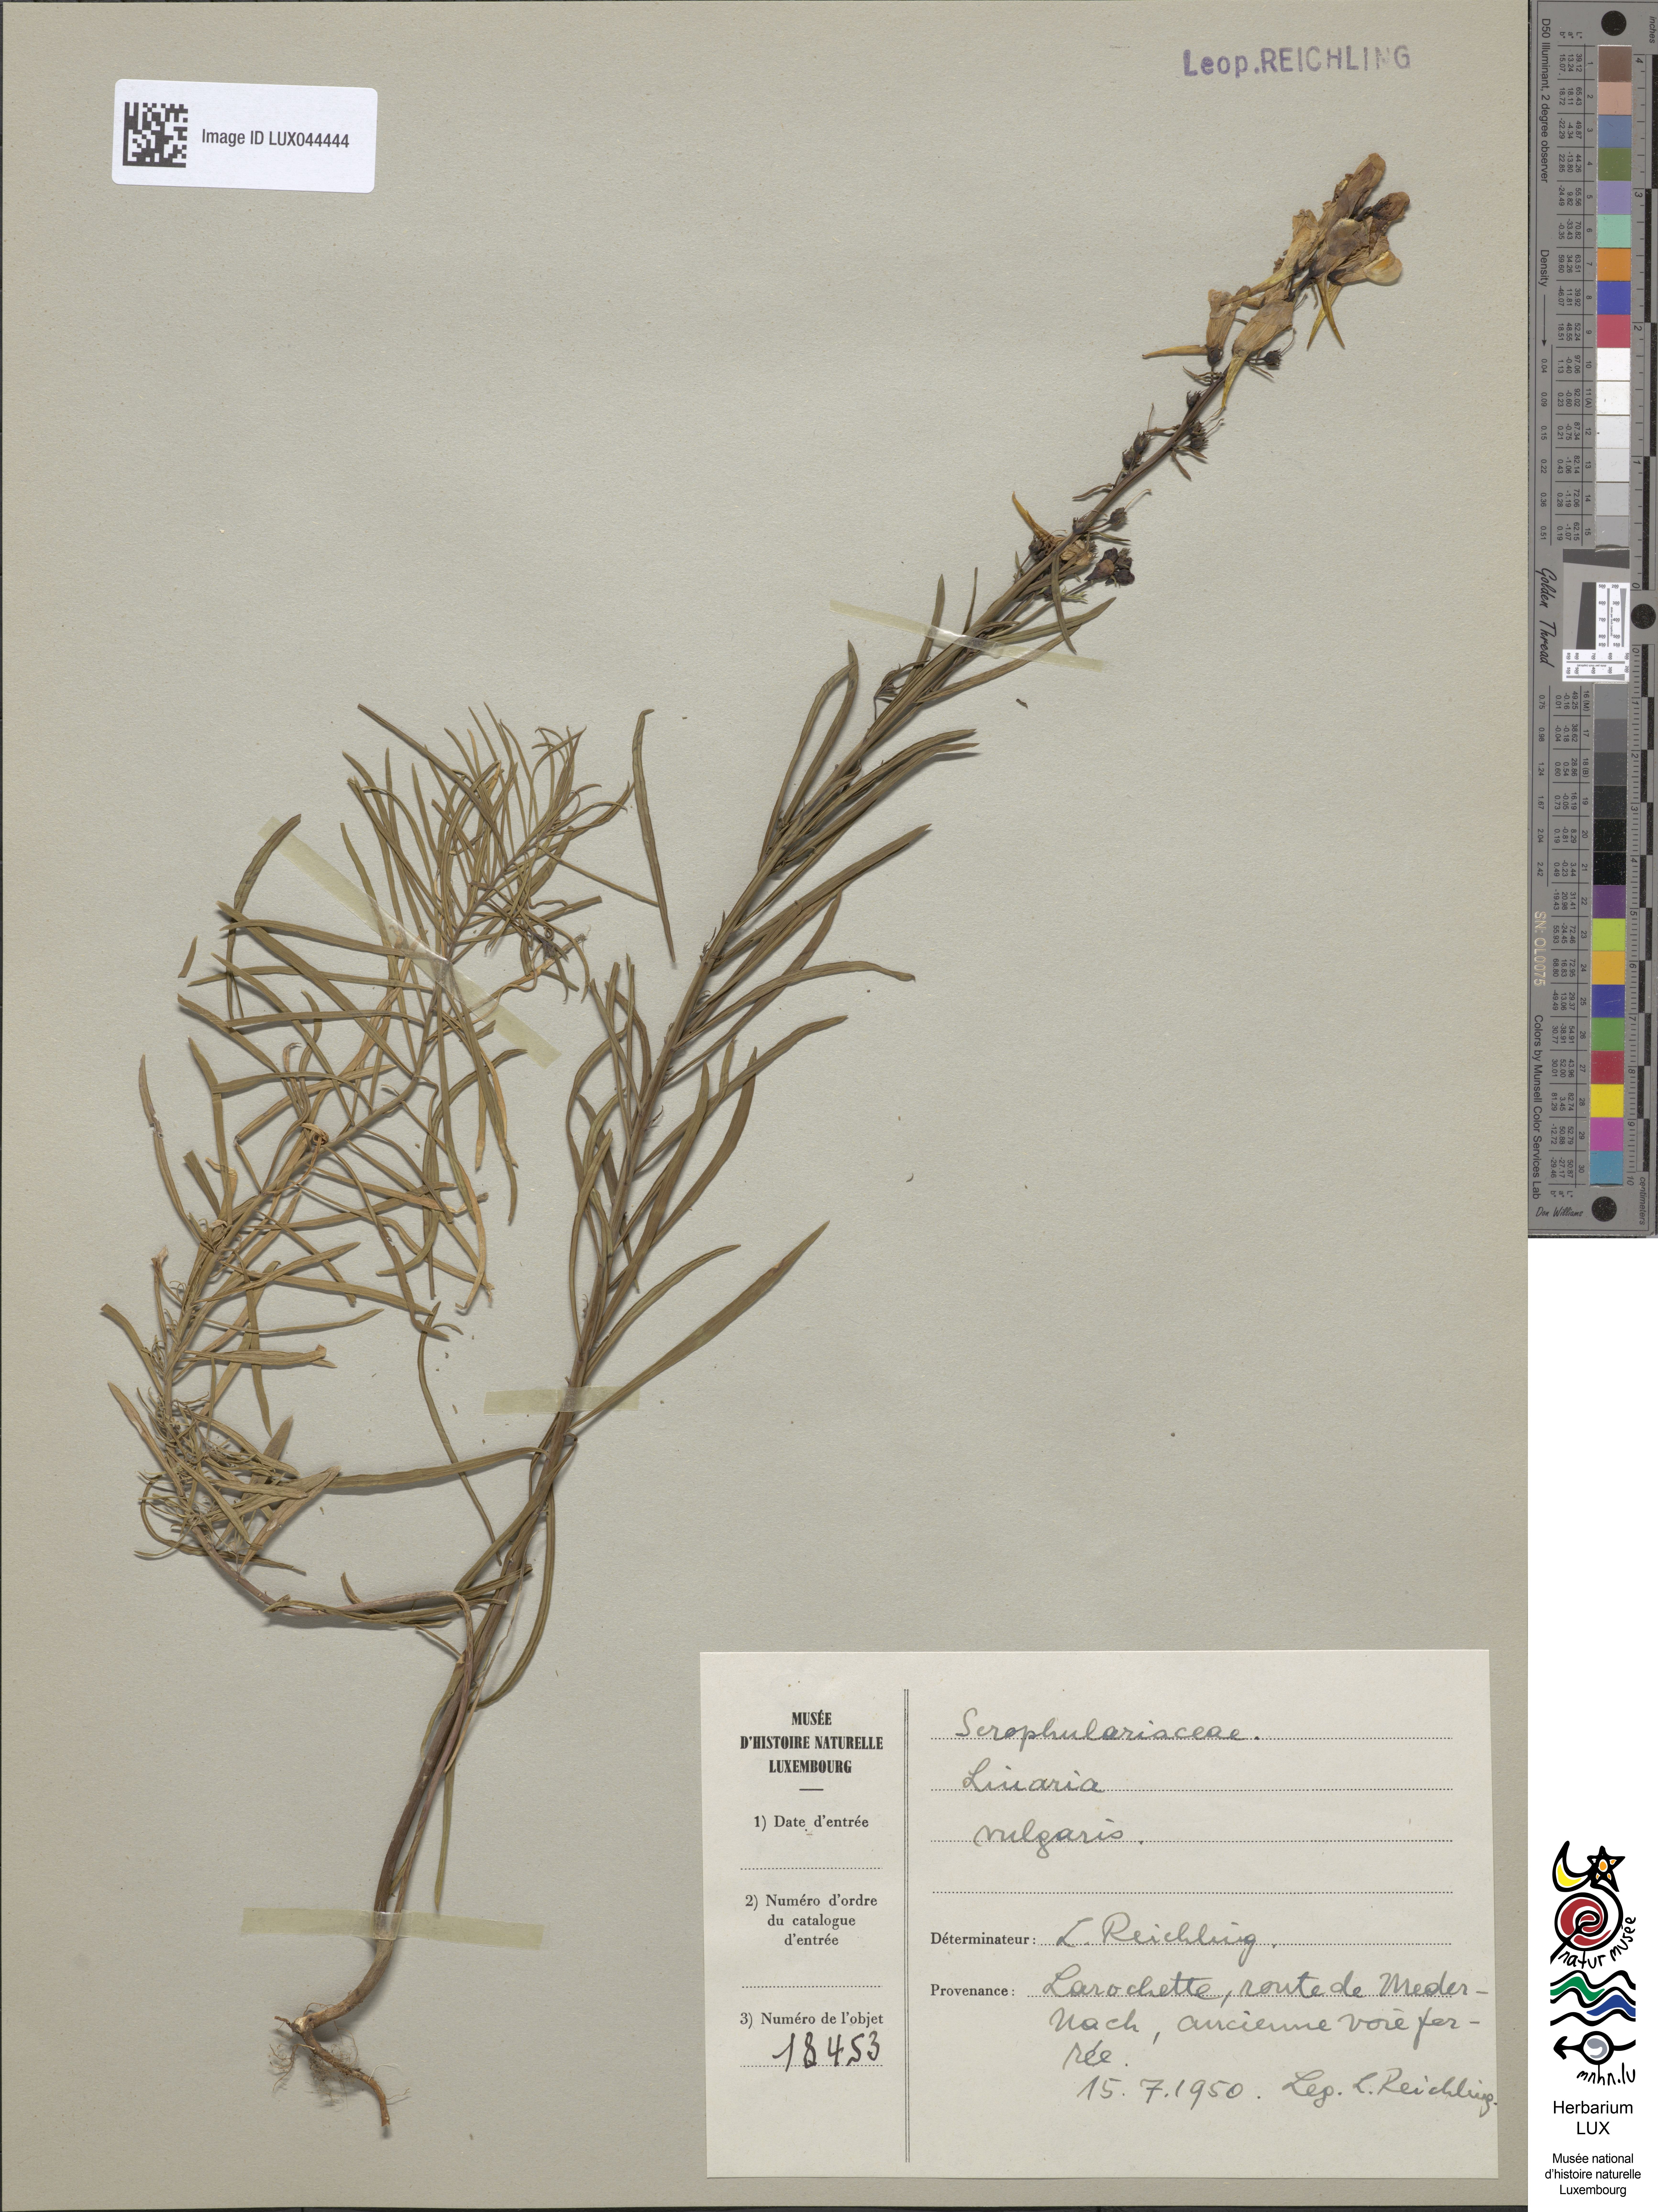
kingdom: Plantae
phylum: Tracheophyta
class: Magnoliopsida
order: Lamiales
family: Plantaginaceae
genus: Linaria
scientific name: Linaria vulgaris
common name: Butter and eggs
